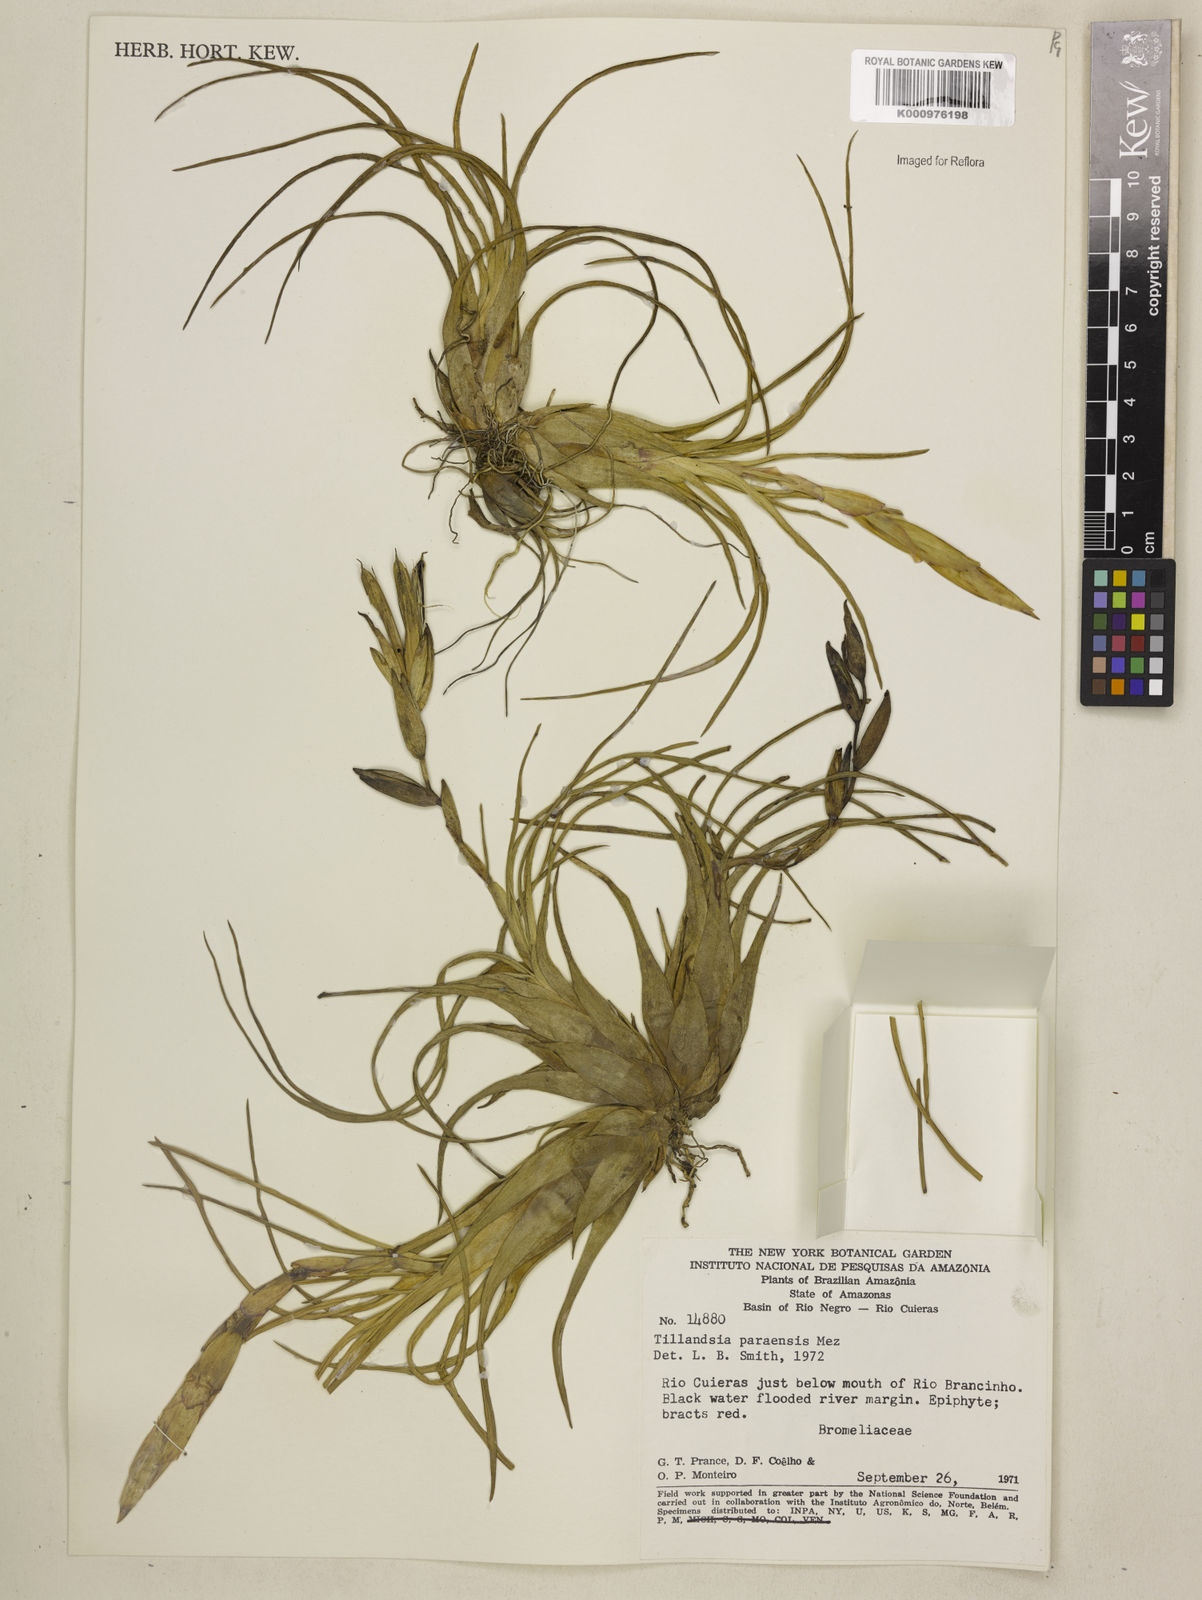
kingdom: Plantae
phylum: Tracheophyta
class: Liliopsida
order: Poales
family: Bromeliaceae
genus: Tillandsia
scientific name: Tillandsia paraensis
